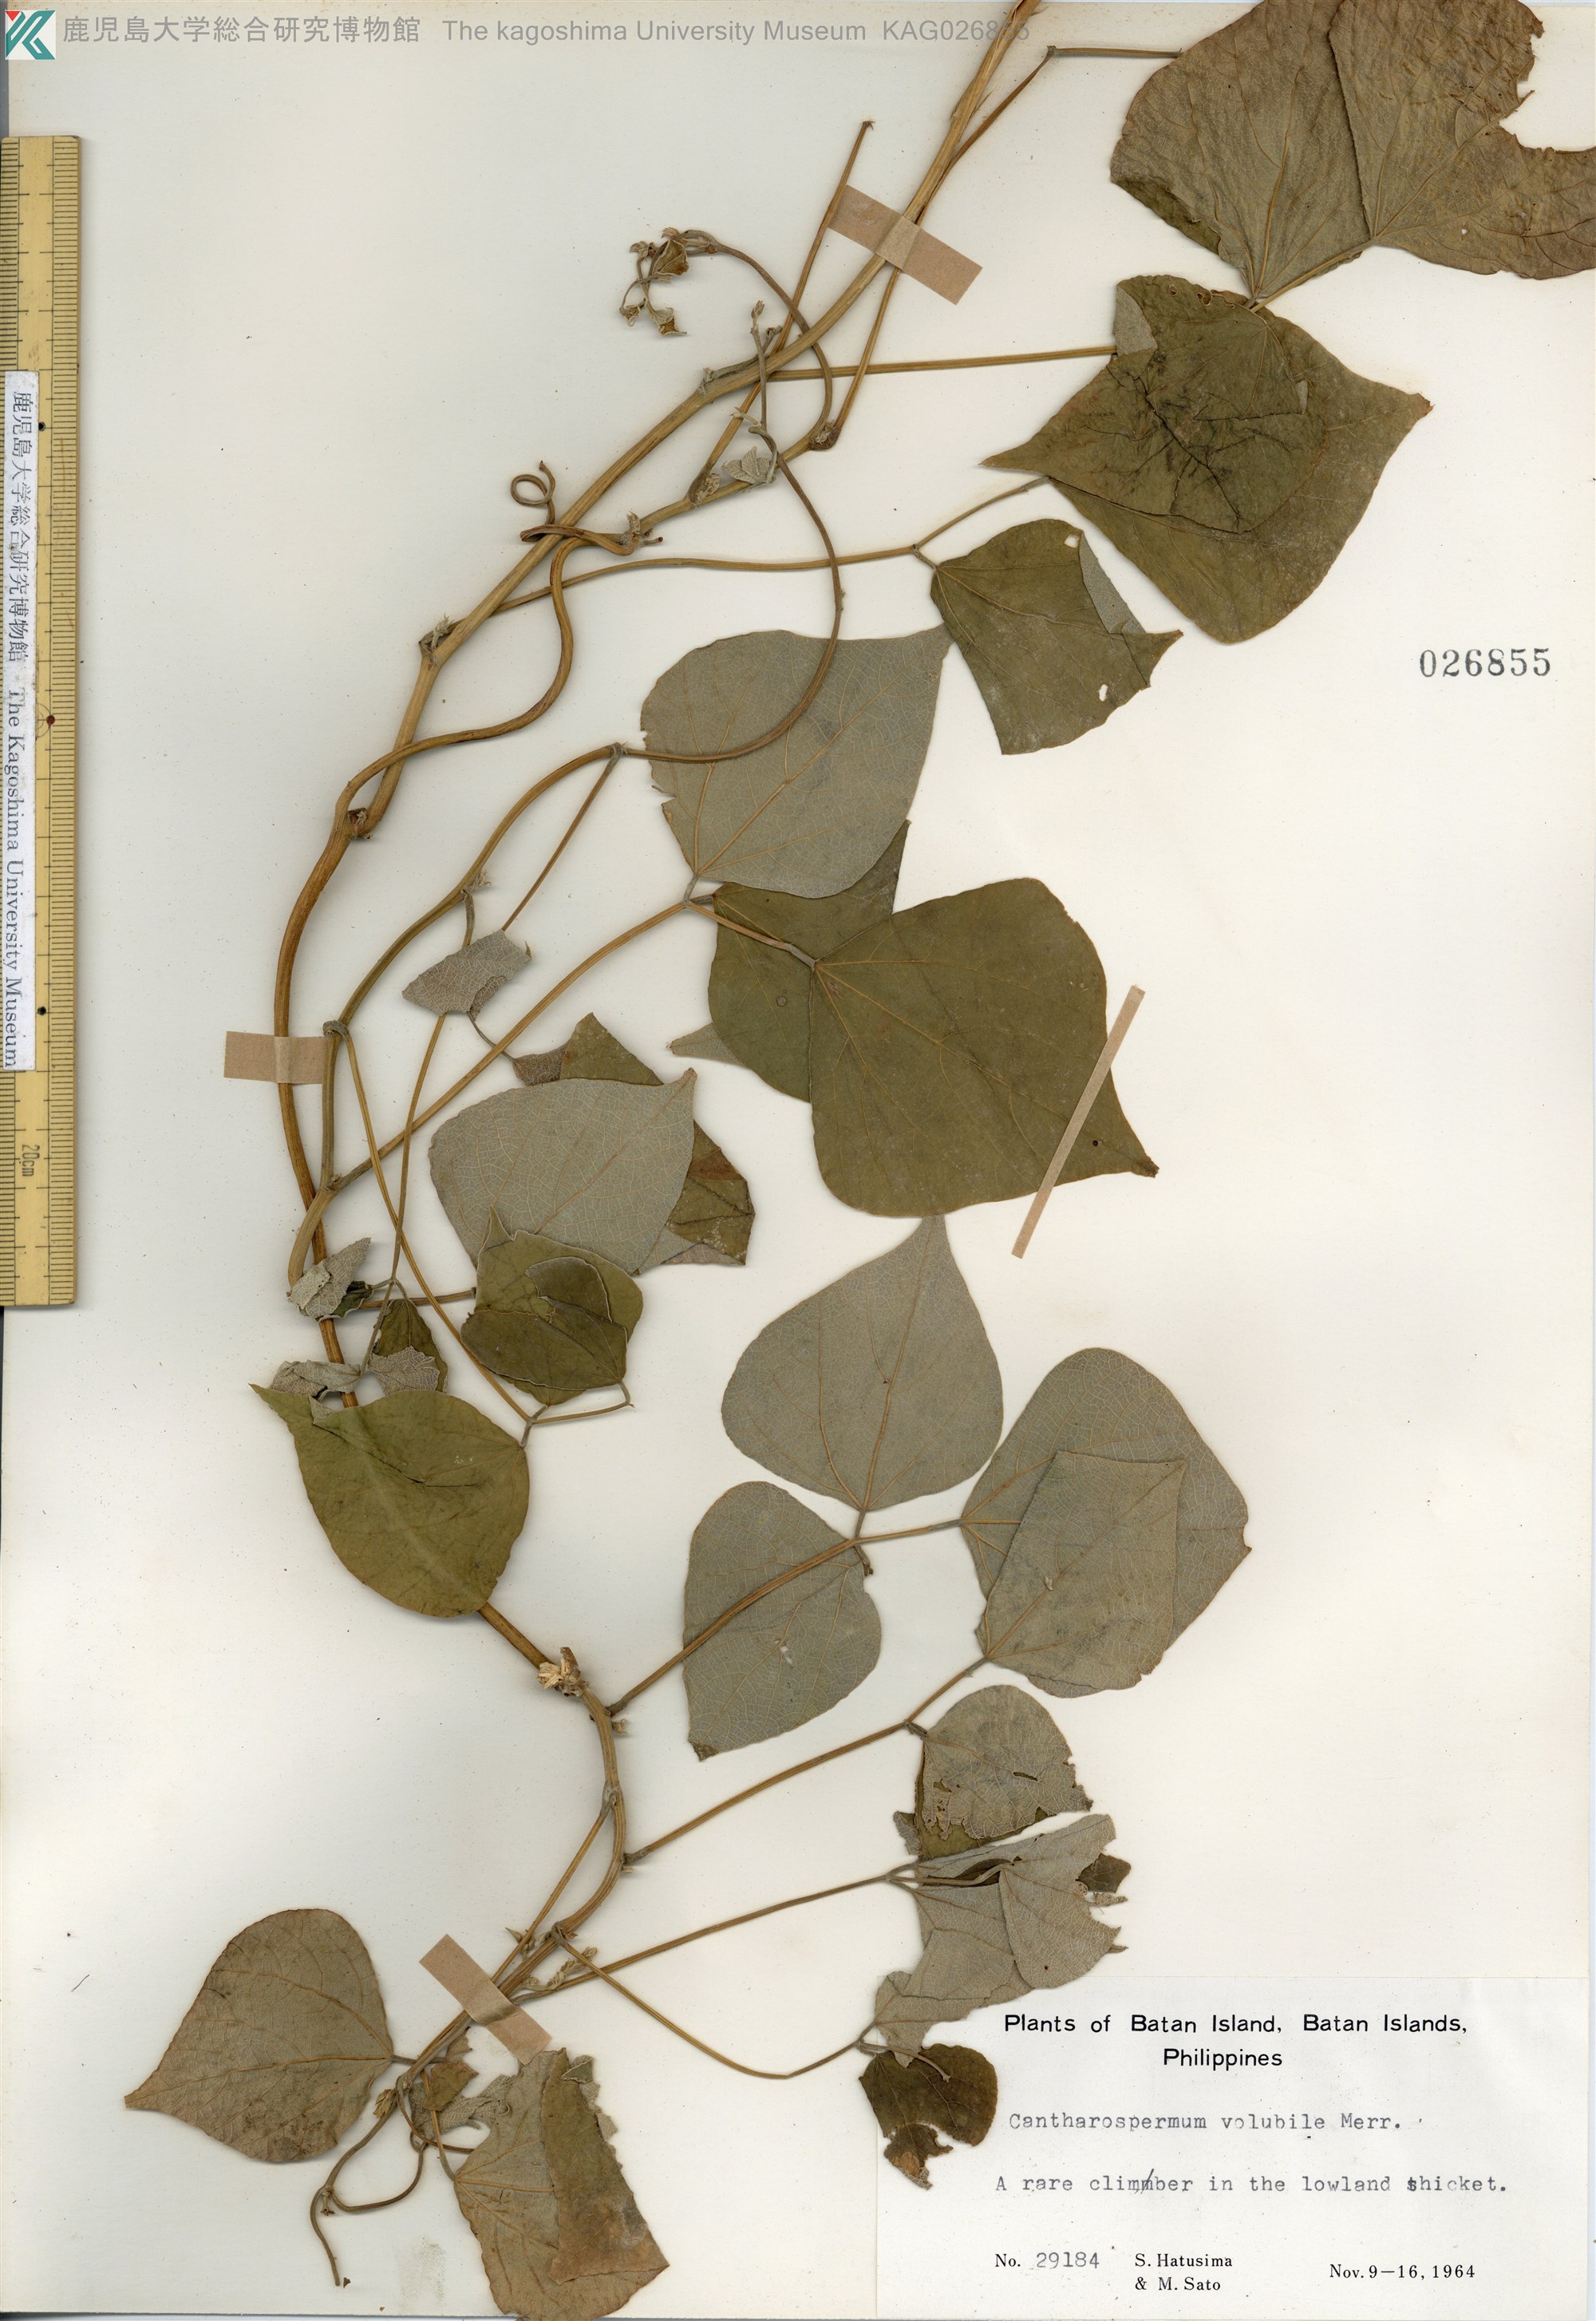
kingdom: Plantae
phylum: Tracheophyta
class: Magnoliopsida
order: Fabales
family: Fabaceae
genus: Cajanus
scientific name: Cajanus volubilis
